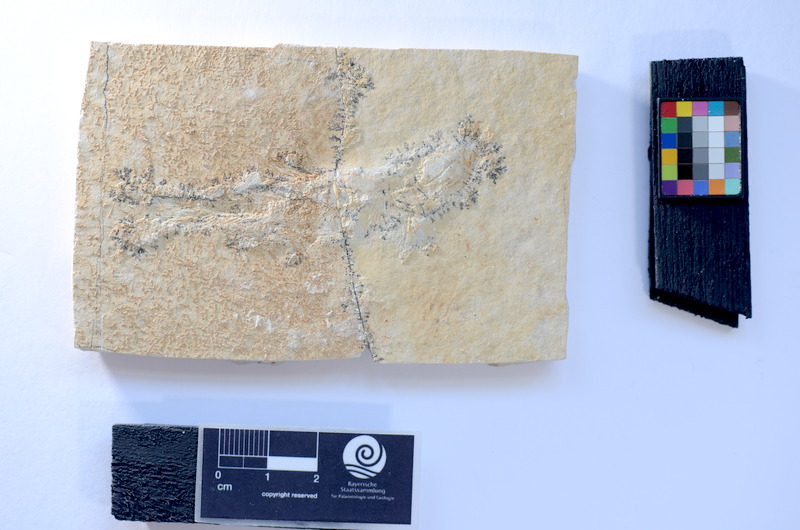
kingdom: Animalia
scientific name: Animalia
